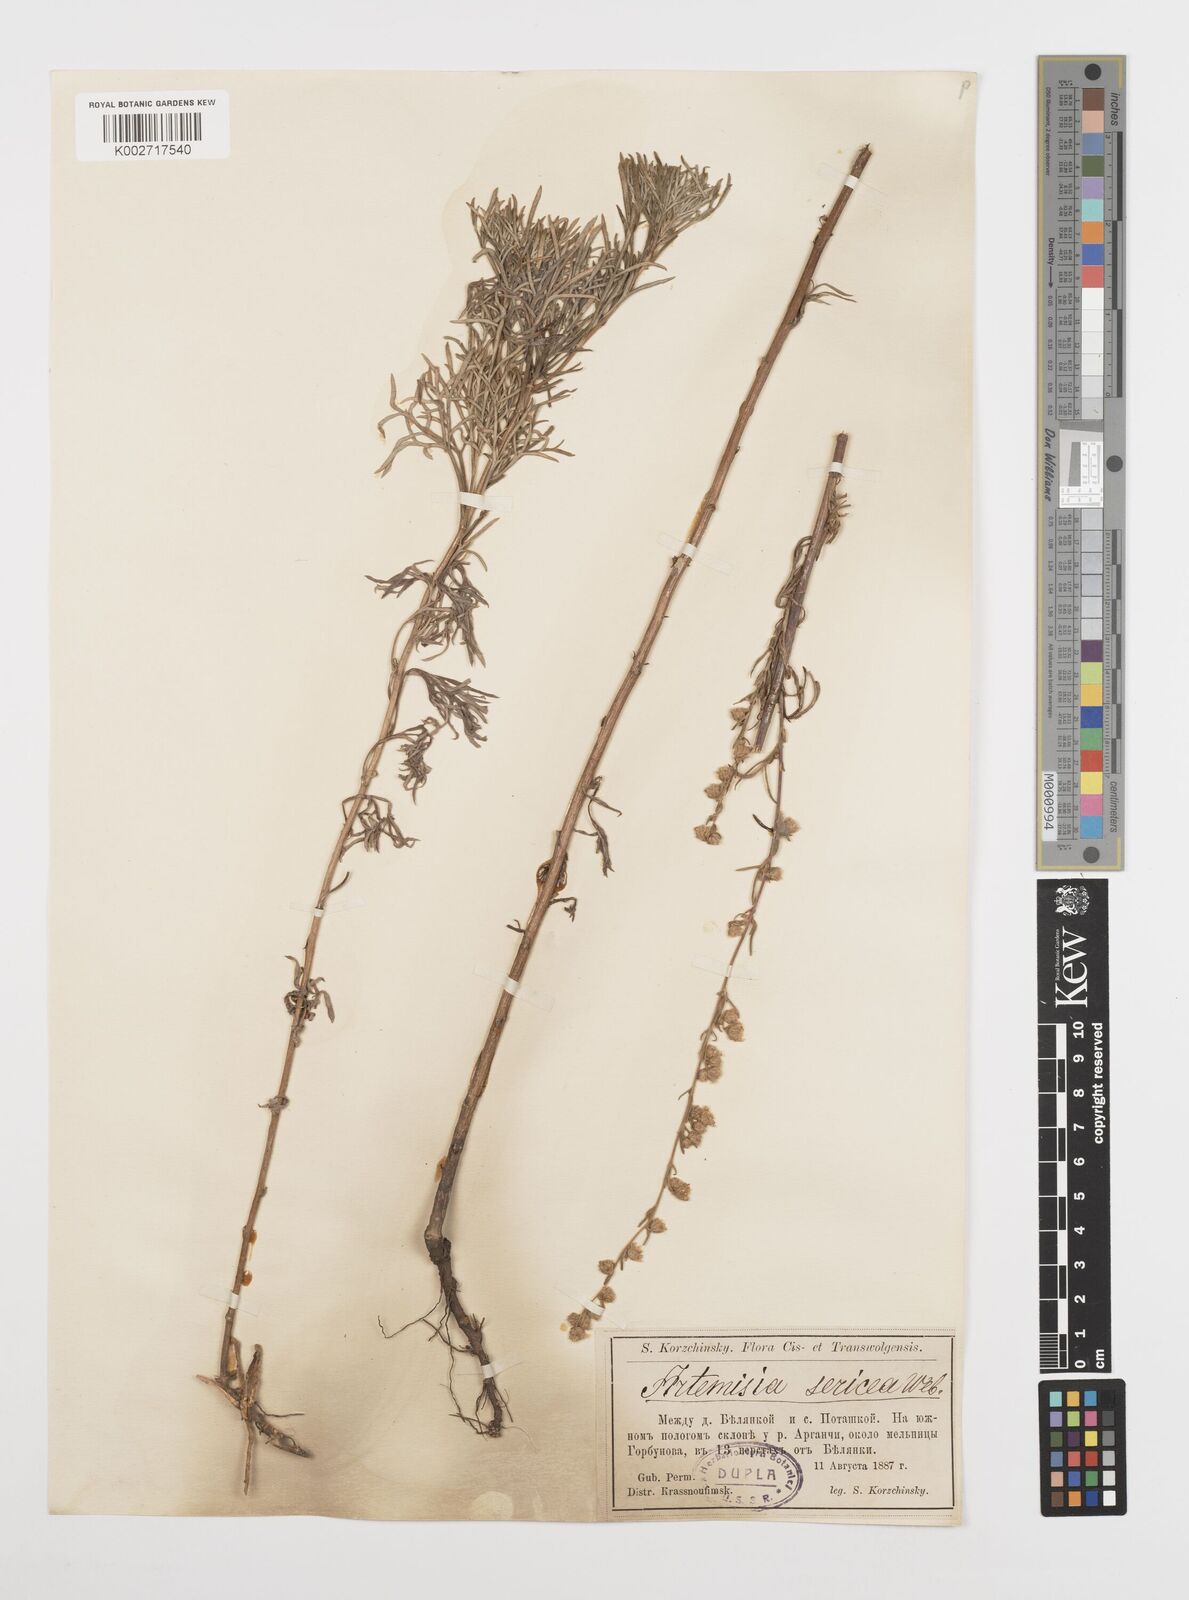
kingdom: Plantae
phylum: Tracheophyta
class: Magnoliopsida
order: Asterales
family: Asteraceae
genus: Artemisia
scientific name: Artemisia marschalliana
